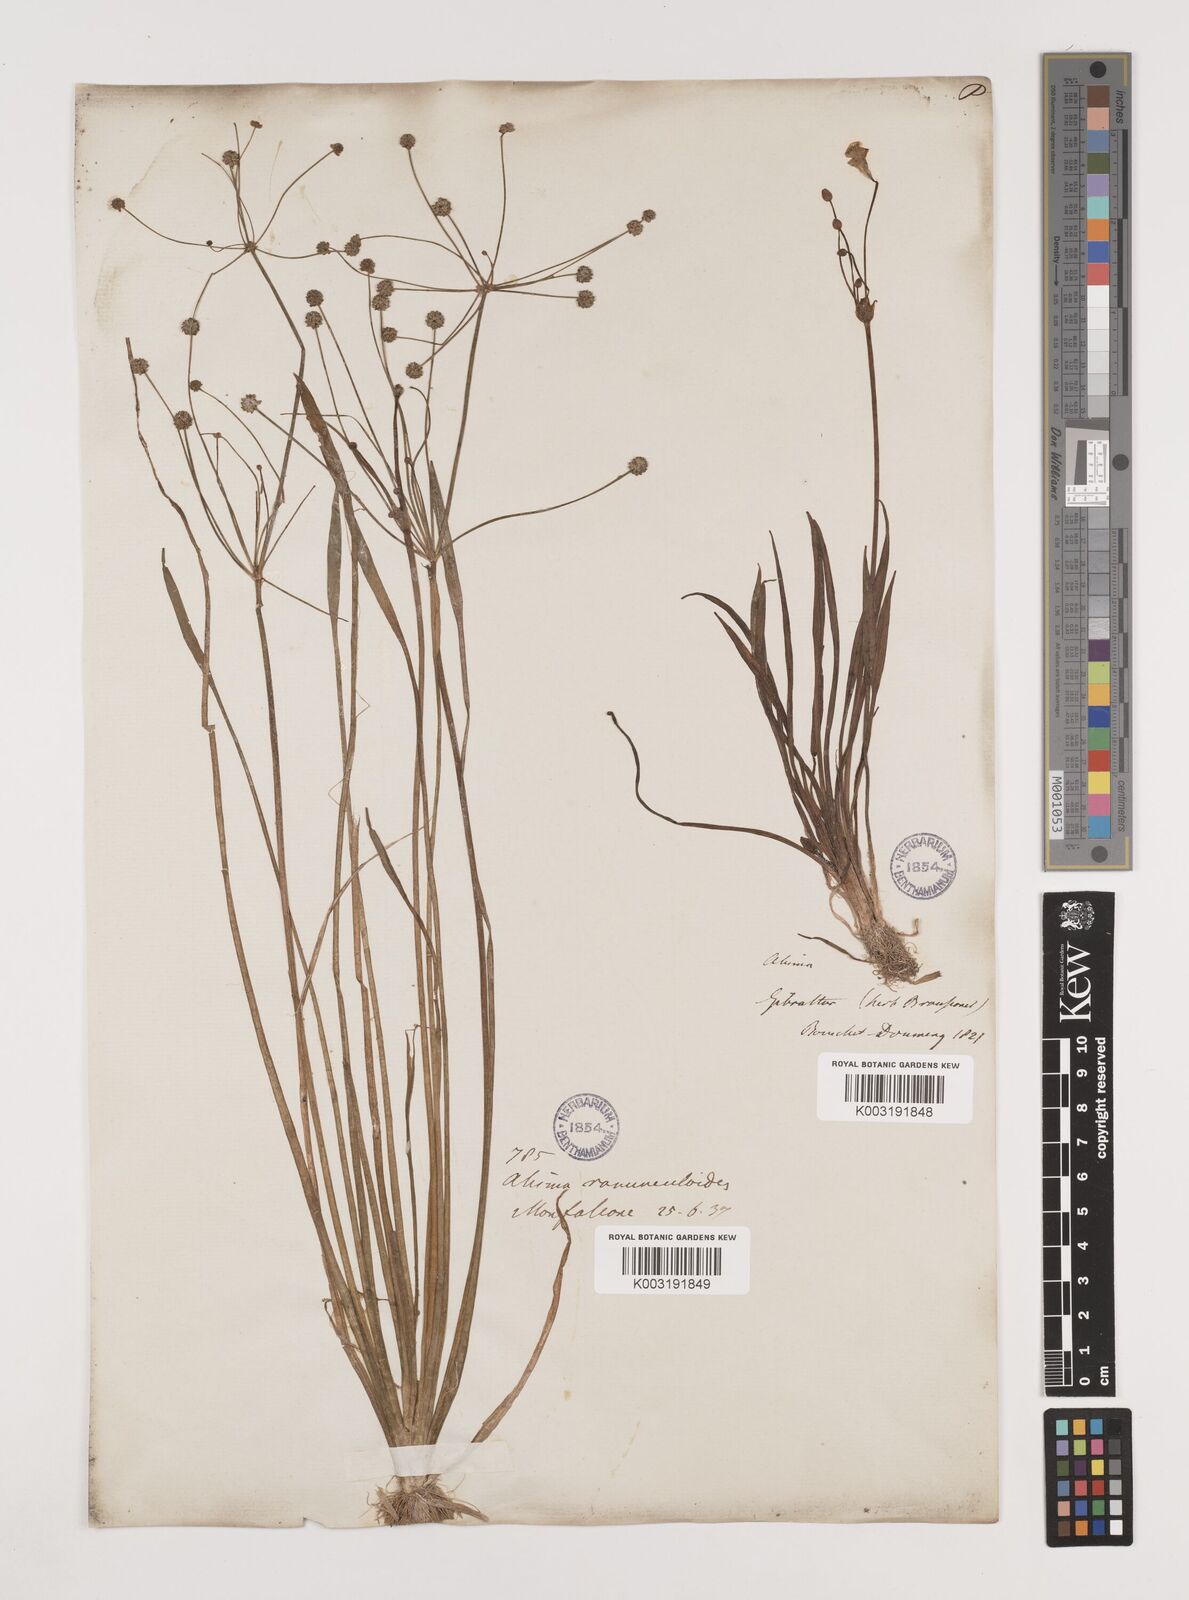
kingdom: Plantae
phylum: Tracheophyta
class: Liliopsida
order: Alismatales
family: Alismataceae
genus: Baldellia
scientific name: Baldellia ranunculoides
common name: Lesser water-plantain
